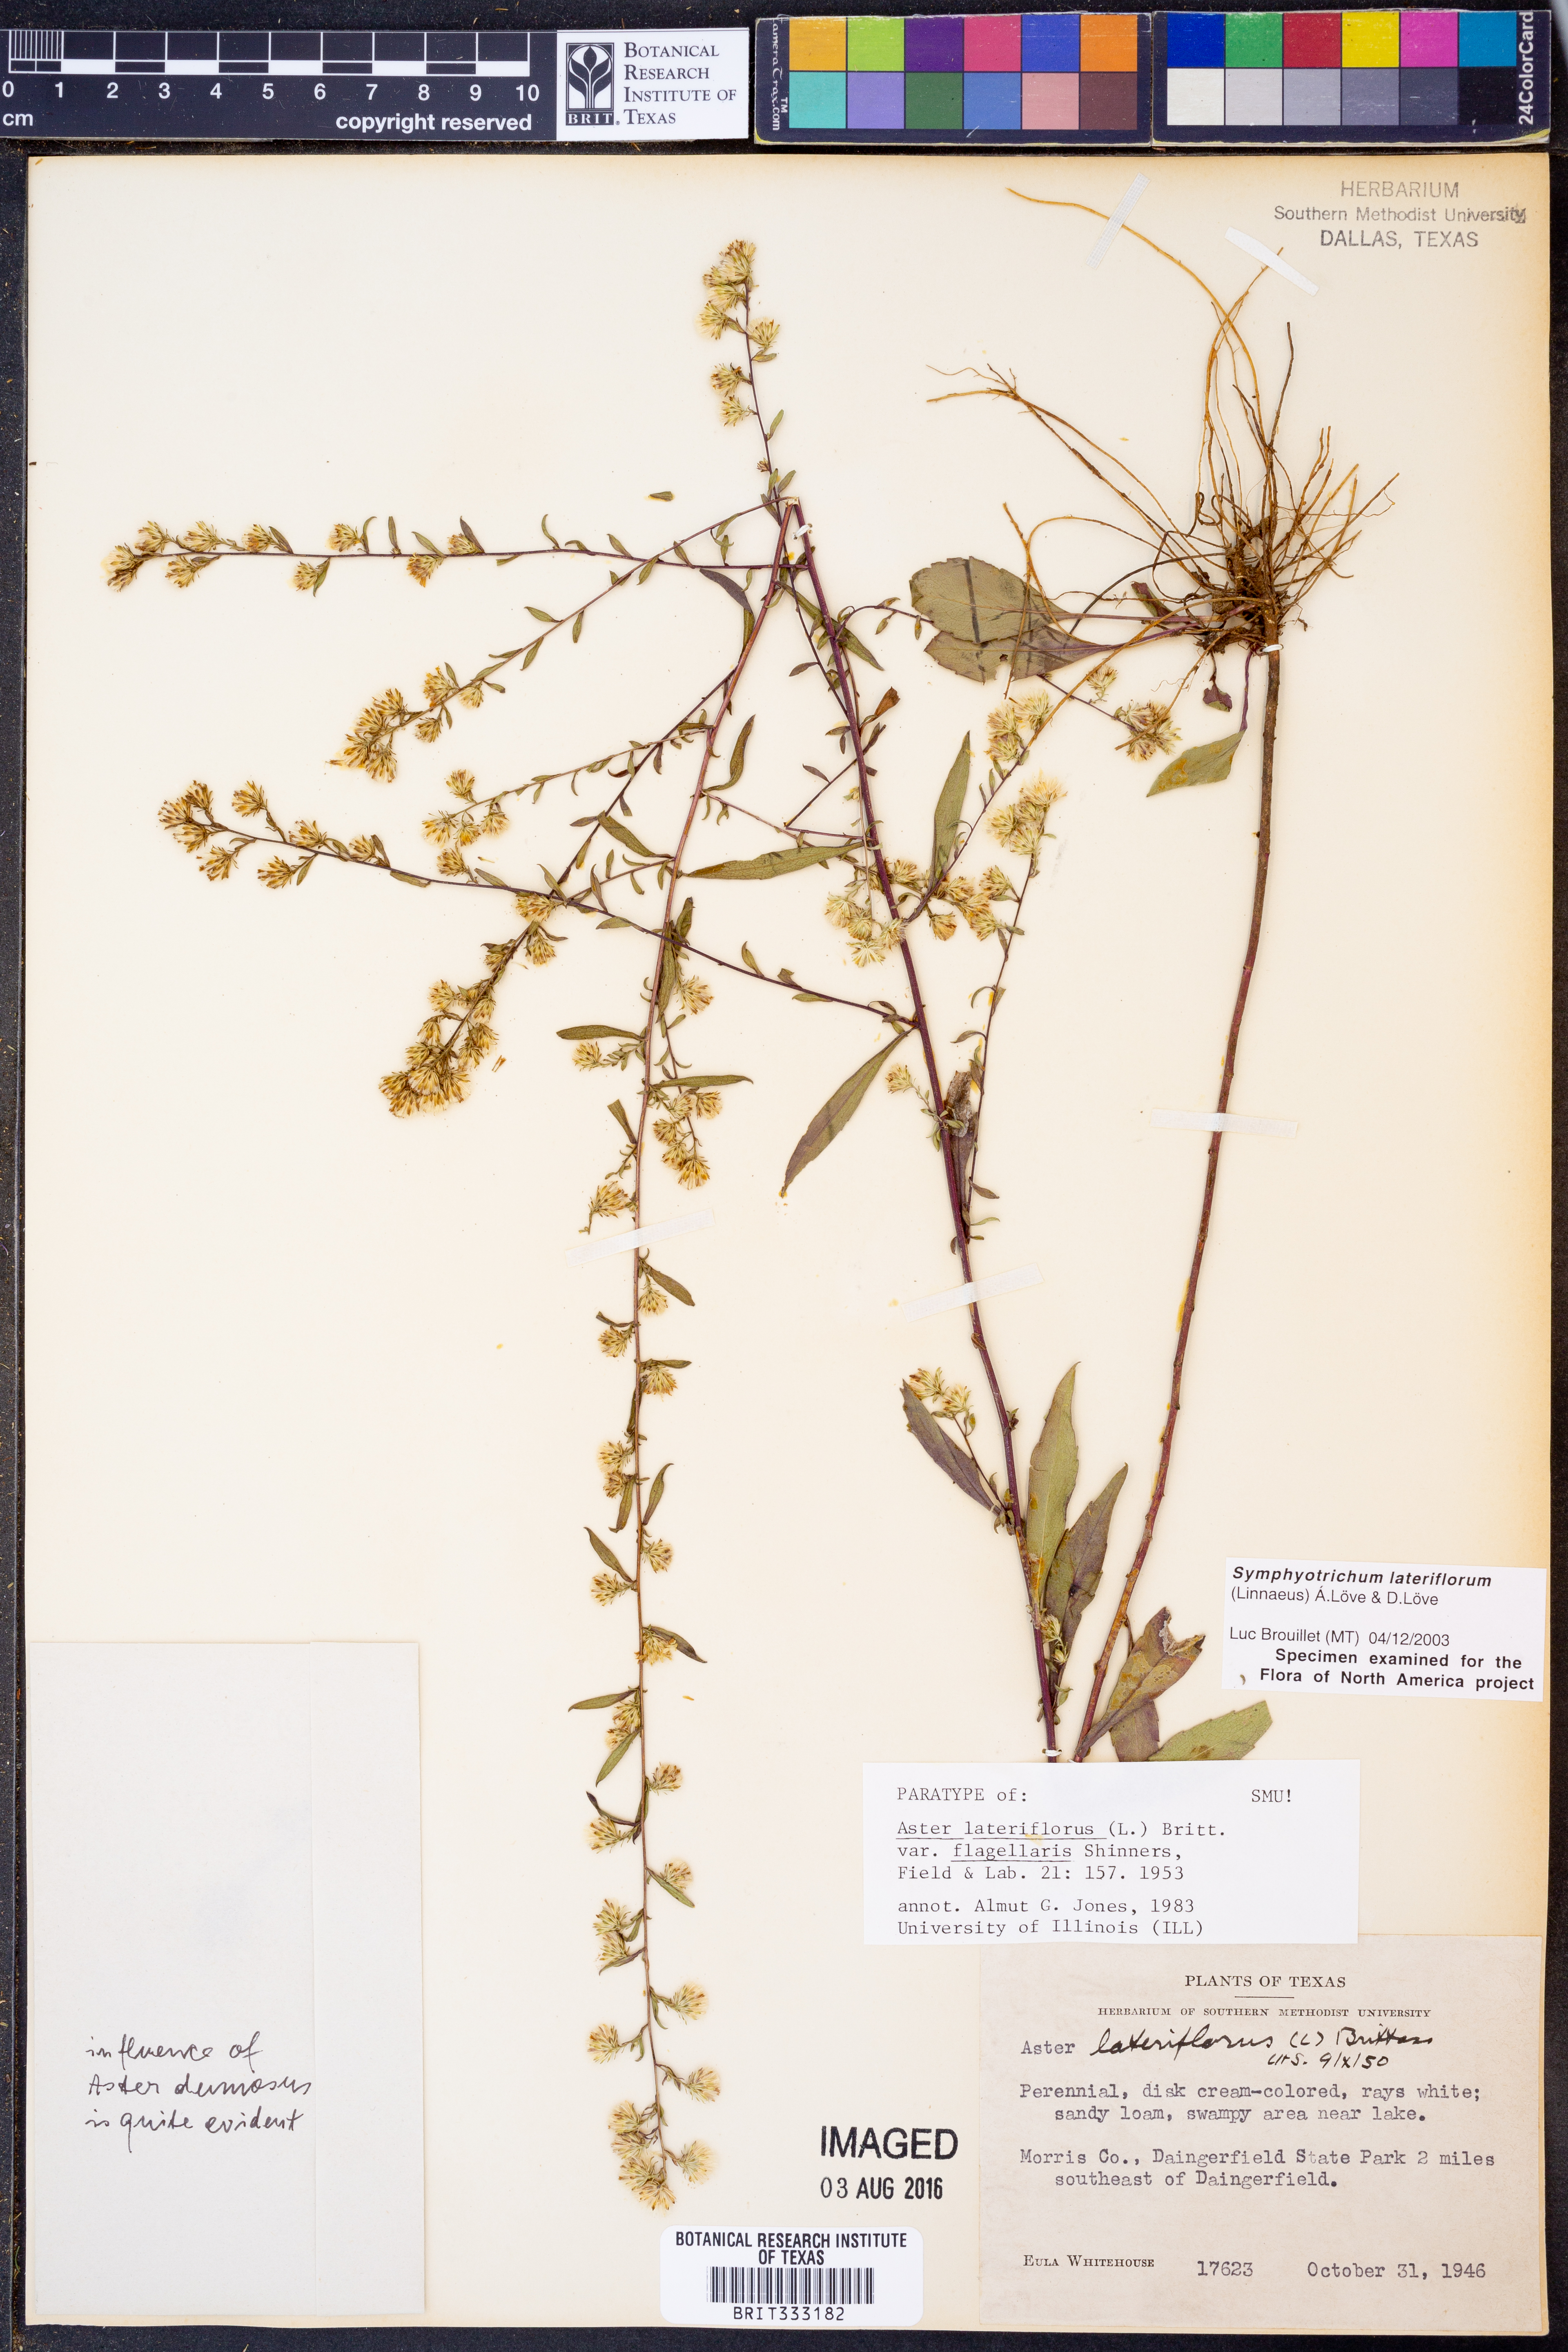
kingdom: Plantae
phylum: Tracheophyta
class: Magnoliopsida
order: Asterales
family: Asteraceae
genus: Symphyotrichum
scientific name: Symphyotrichum lateriflorum
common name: Calico aster
